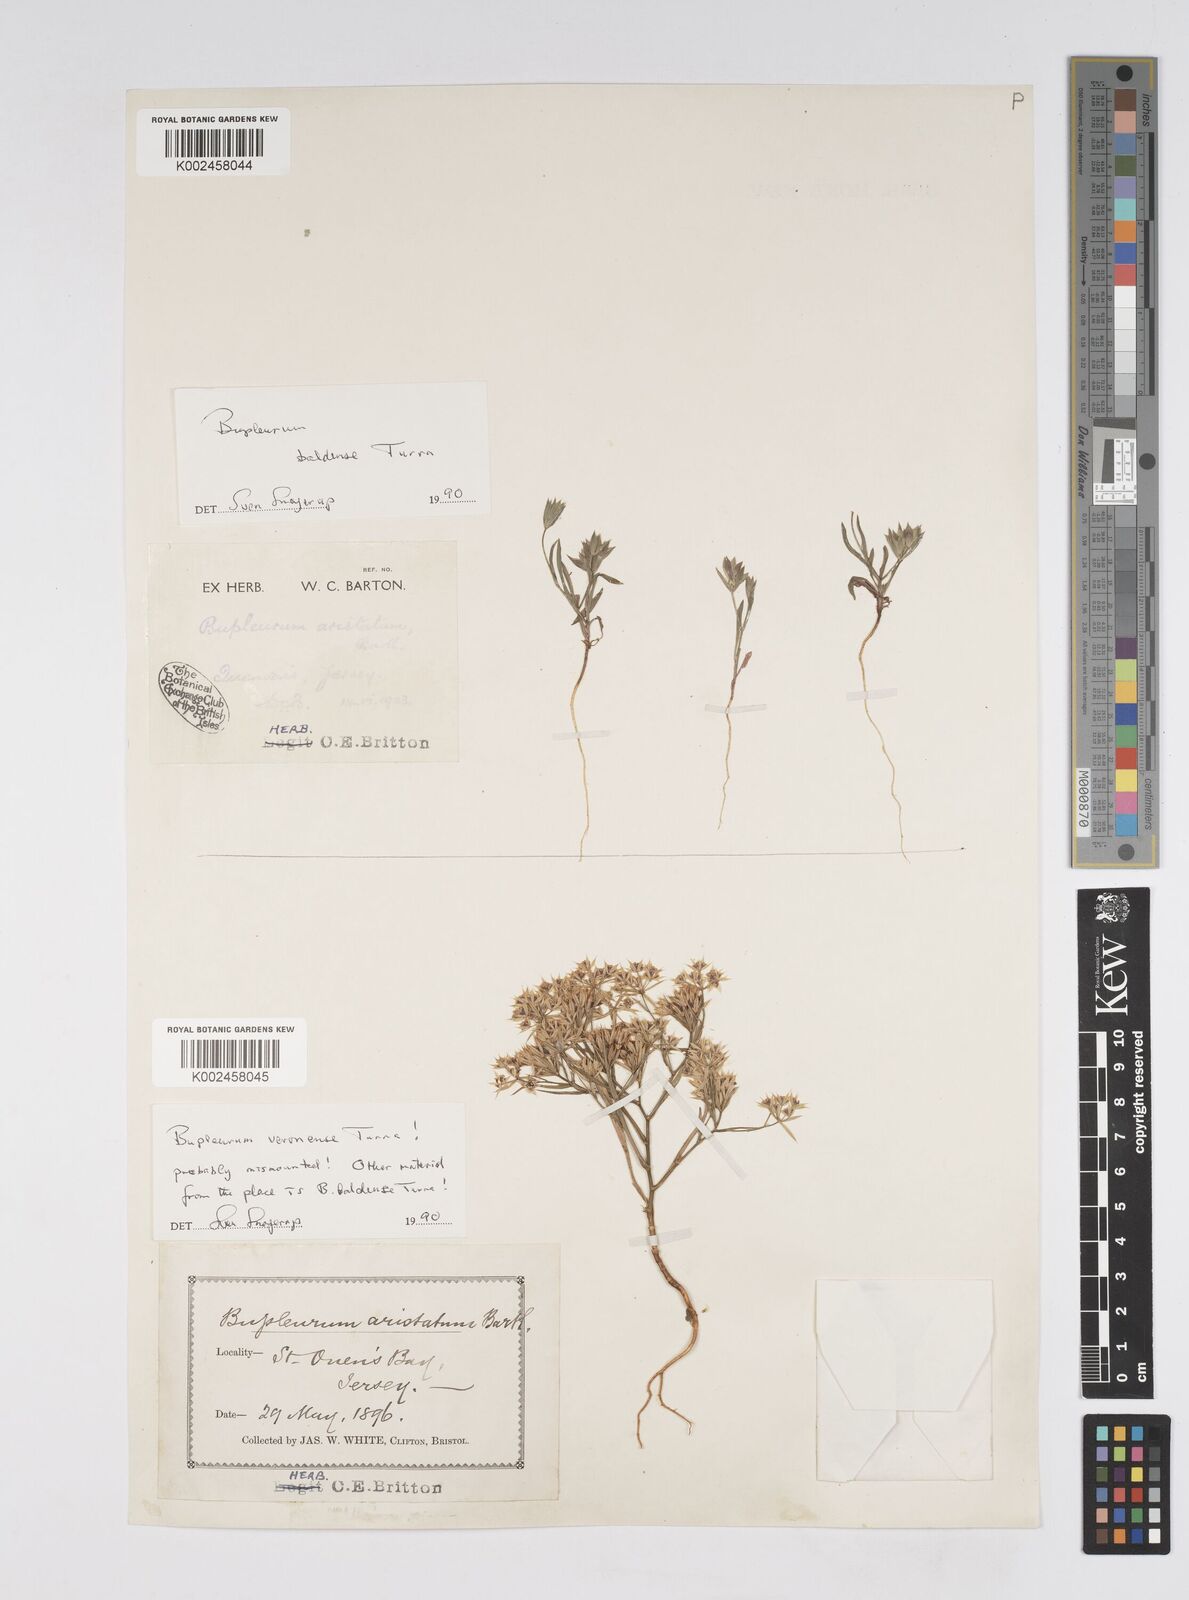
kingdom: Plantae
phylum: Tracheophyta
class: Magnoliopsida
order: Apiales
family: Apiaceae
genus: Bupleurum
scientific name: Bupleurum baldense
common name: Small hare's-ear
